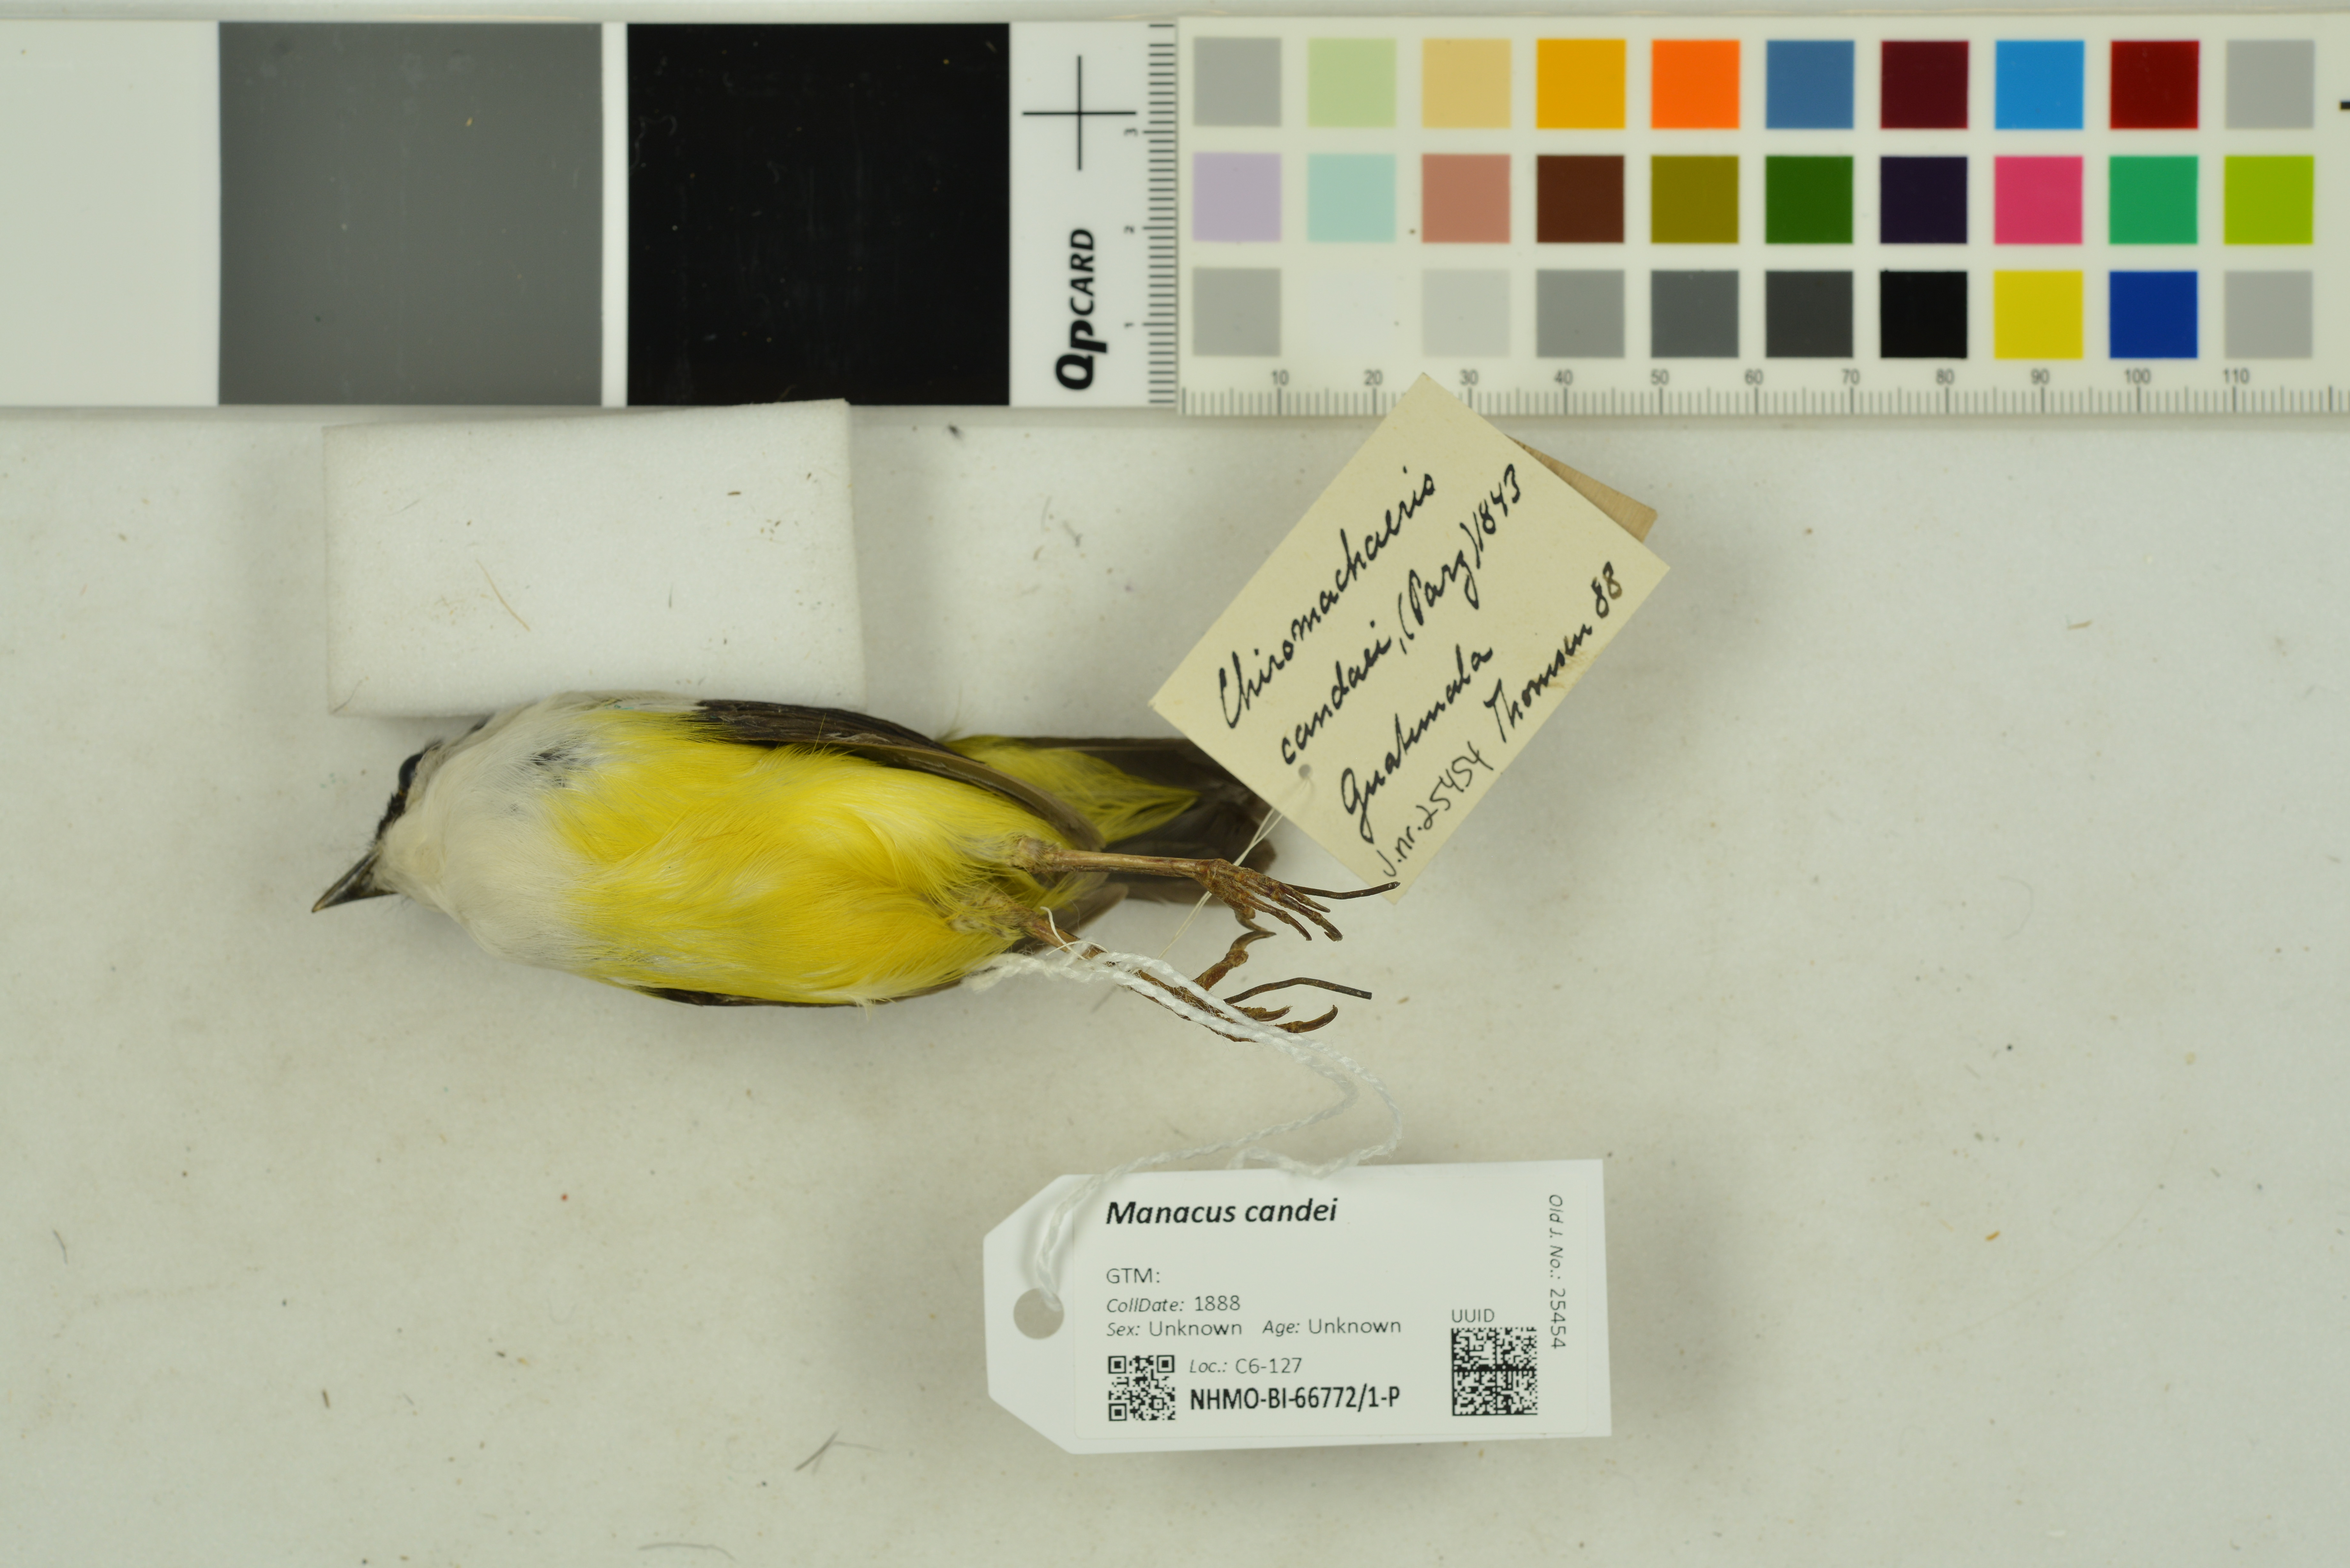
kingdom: Animalia
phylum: Chordata
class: Aves
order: Passeriformes
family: Pipridae
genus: Manacus
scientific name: Manacus candei
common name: White-collared manakin
